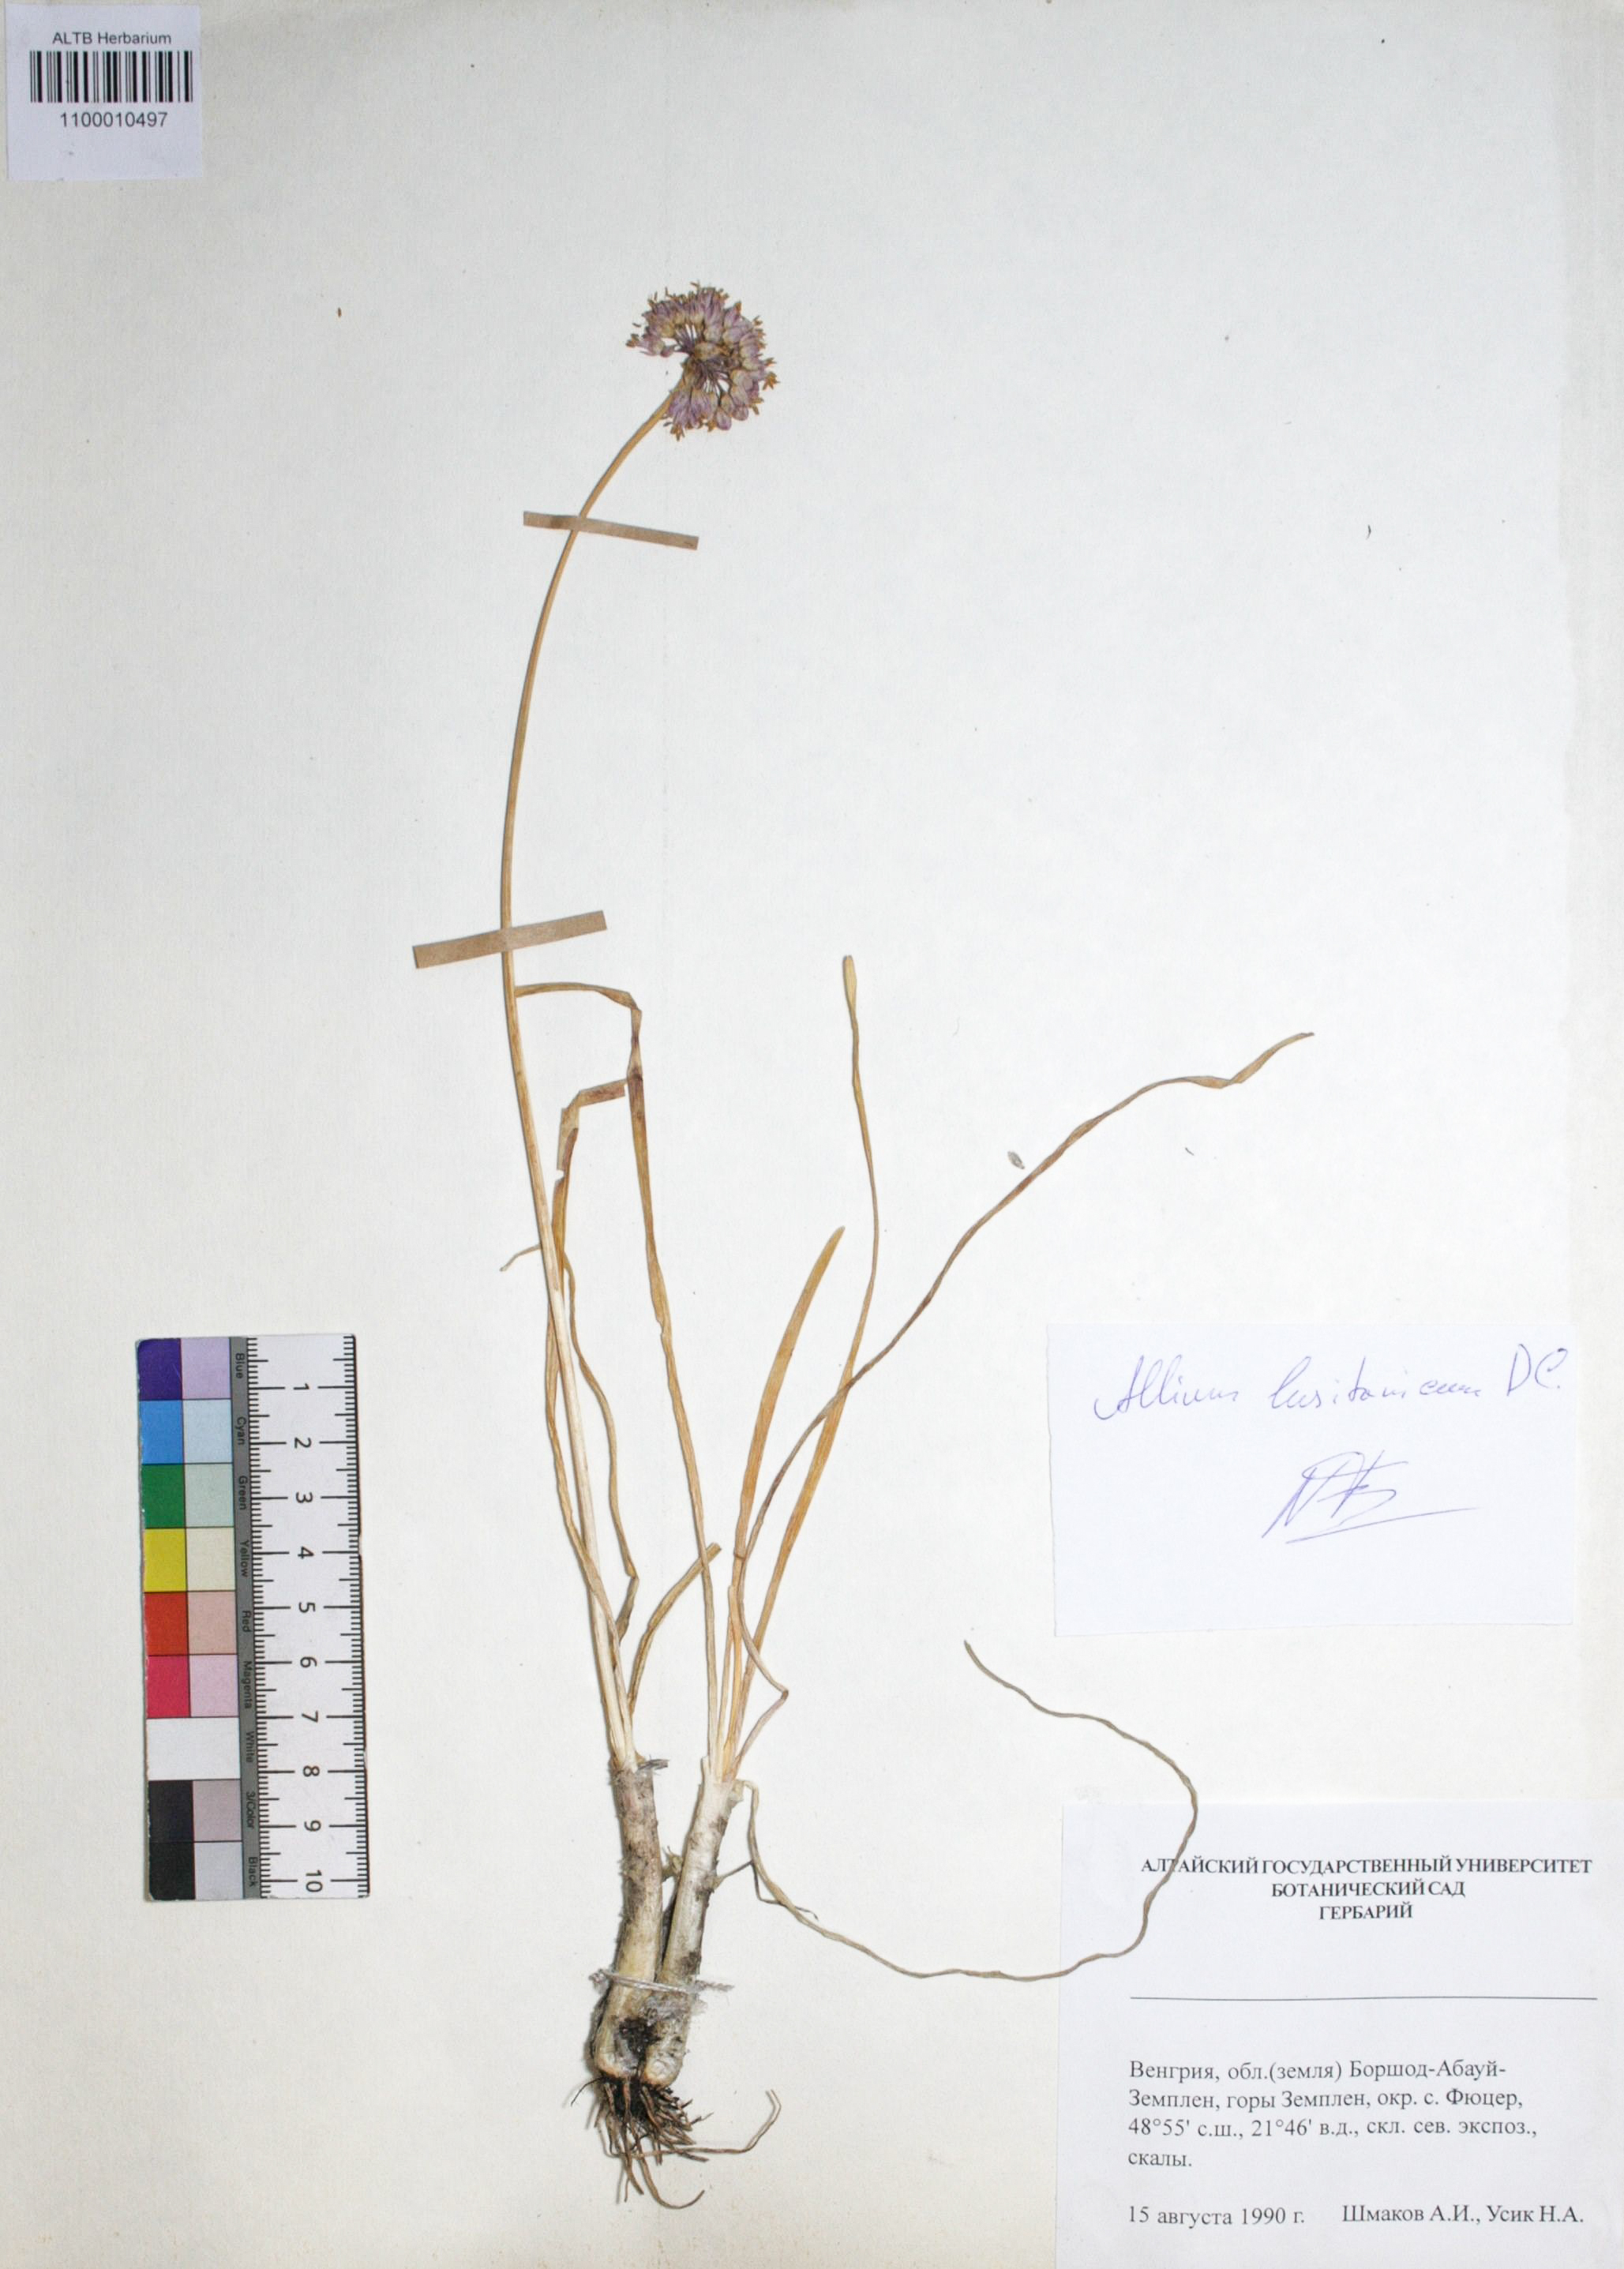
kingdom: Plantae
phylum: Tracheophyta
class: Liliopsida
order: Asparagales
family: Amaryllidaceae
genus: Allium
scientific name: Allium lusitanicum
